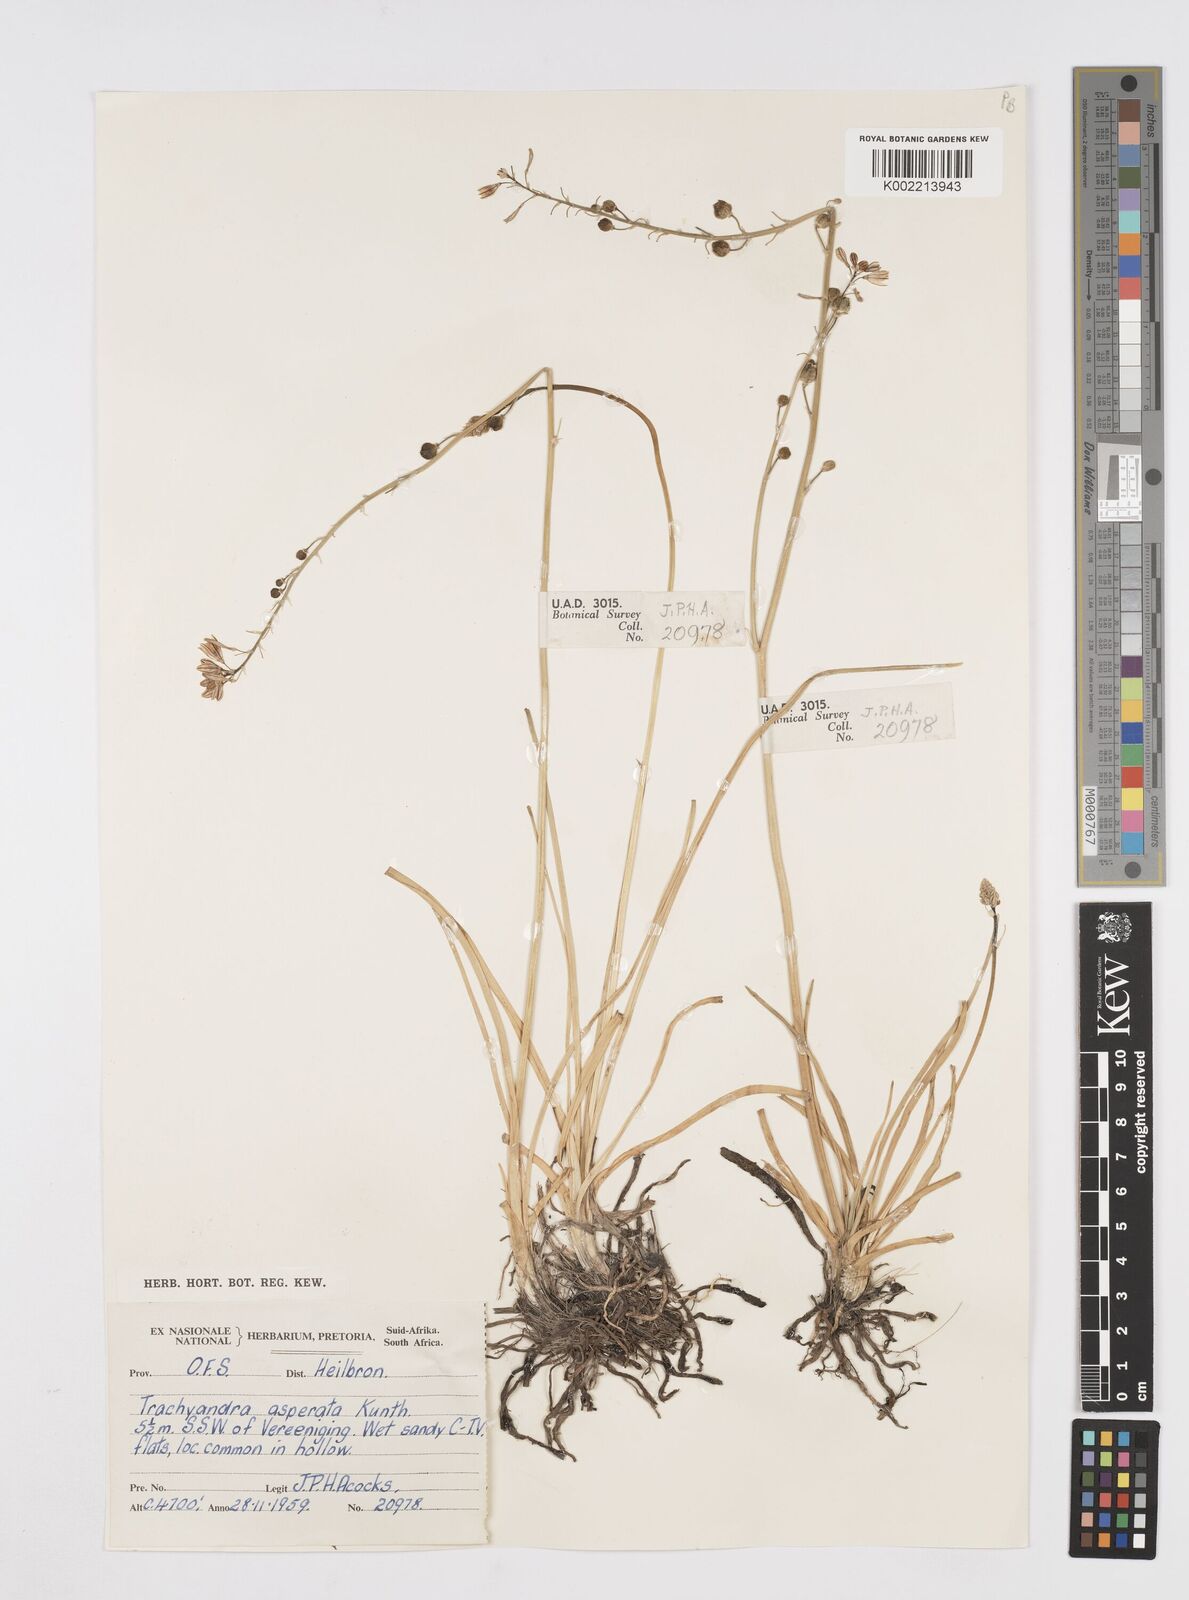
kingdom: Plantae
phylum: Tracheophyta
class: Liliopsida
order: Asparagales
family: Asphodelaceae
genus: Trachyandra
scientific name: Trachyandra asperata
